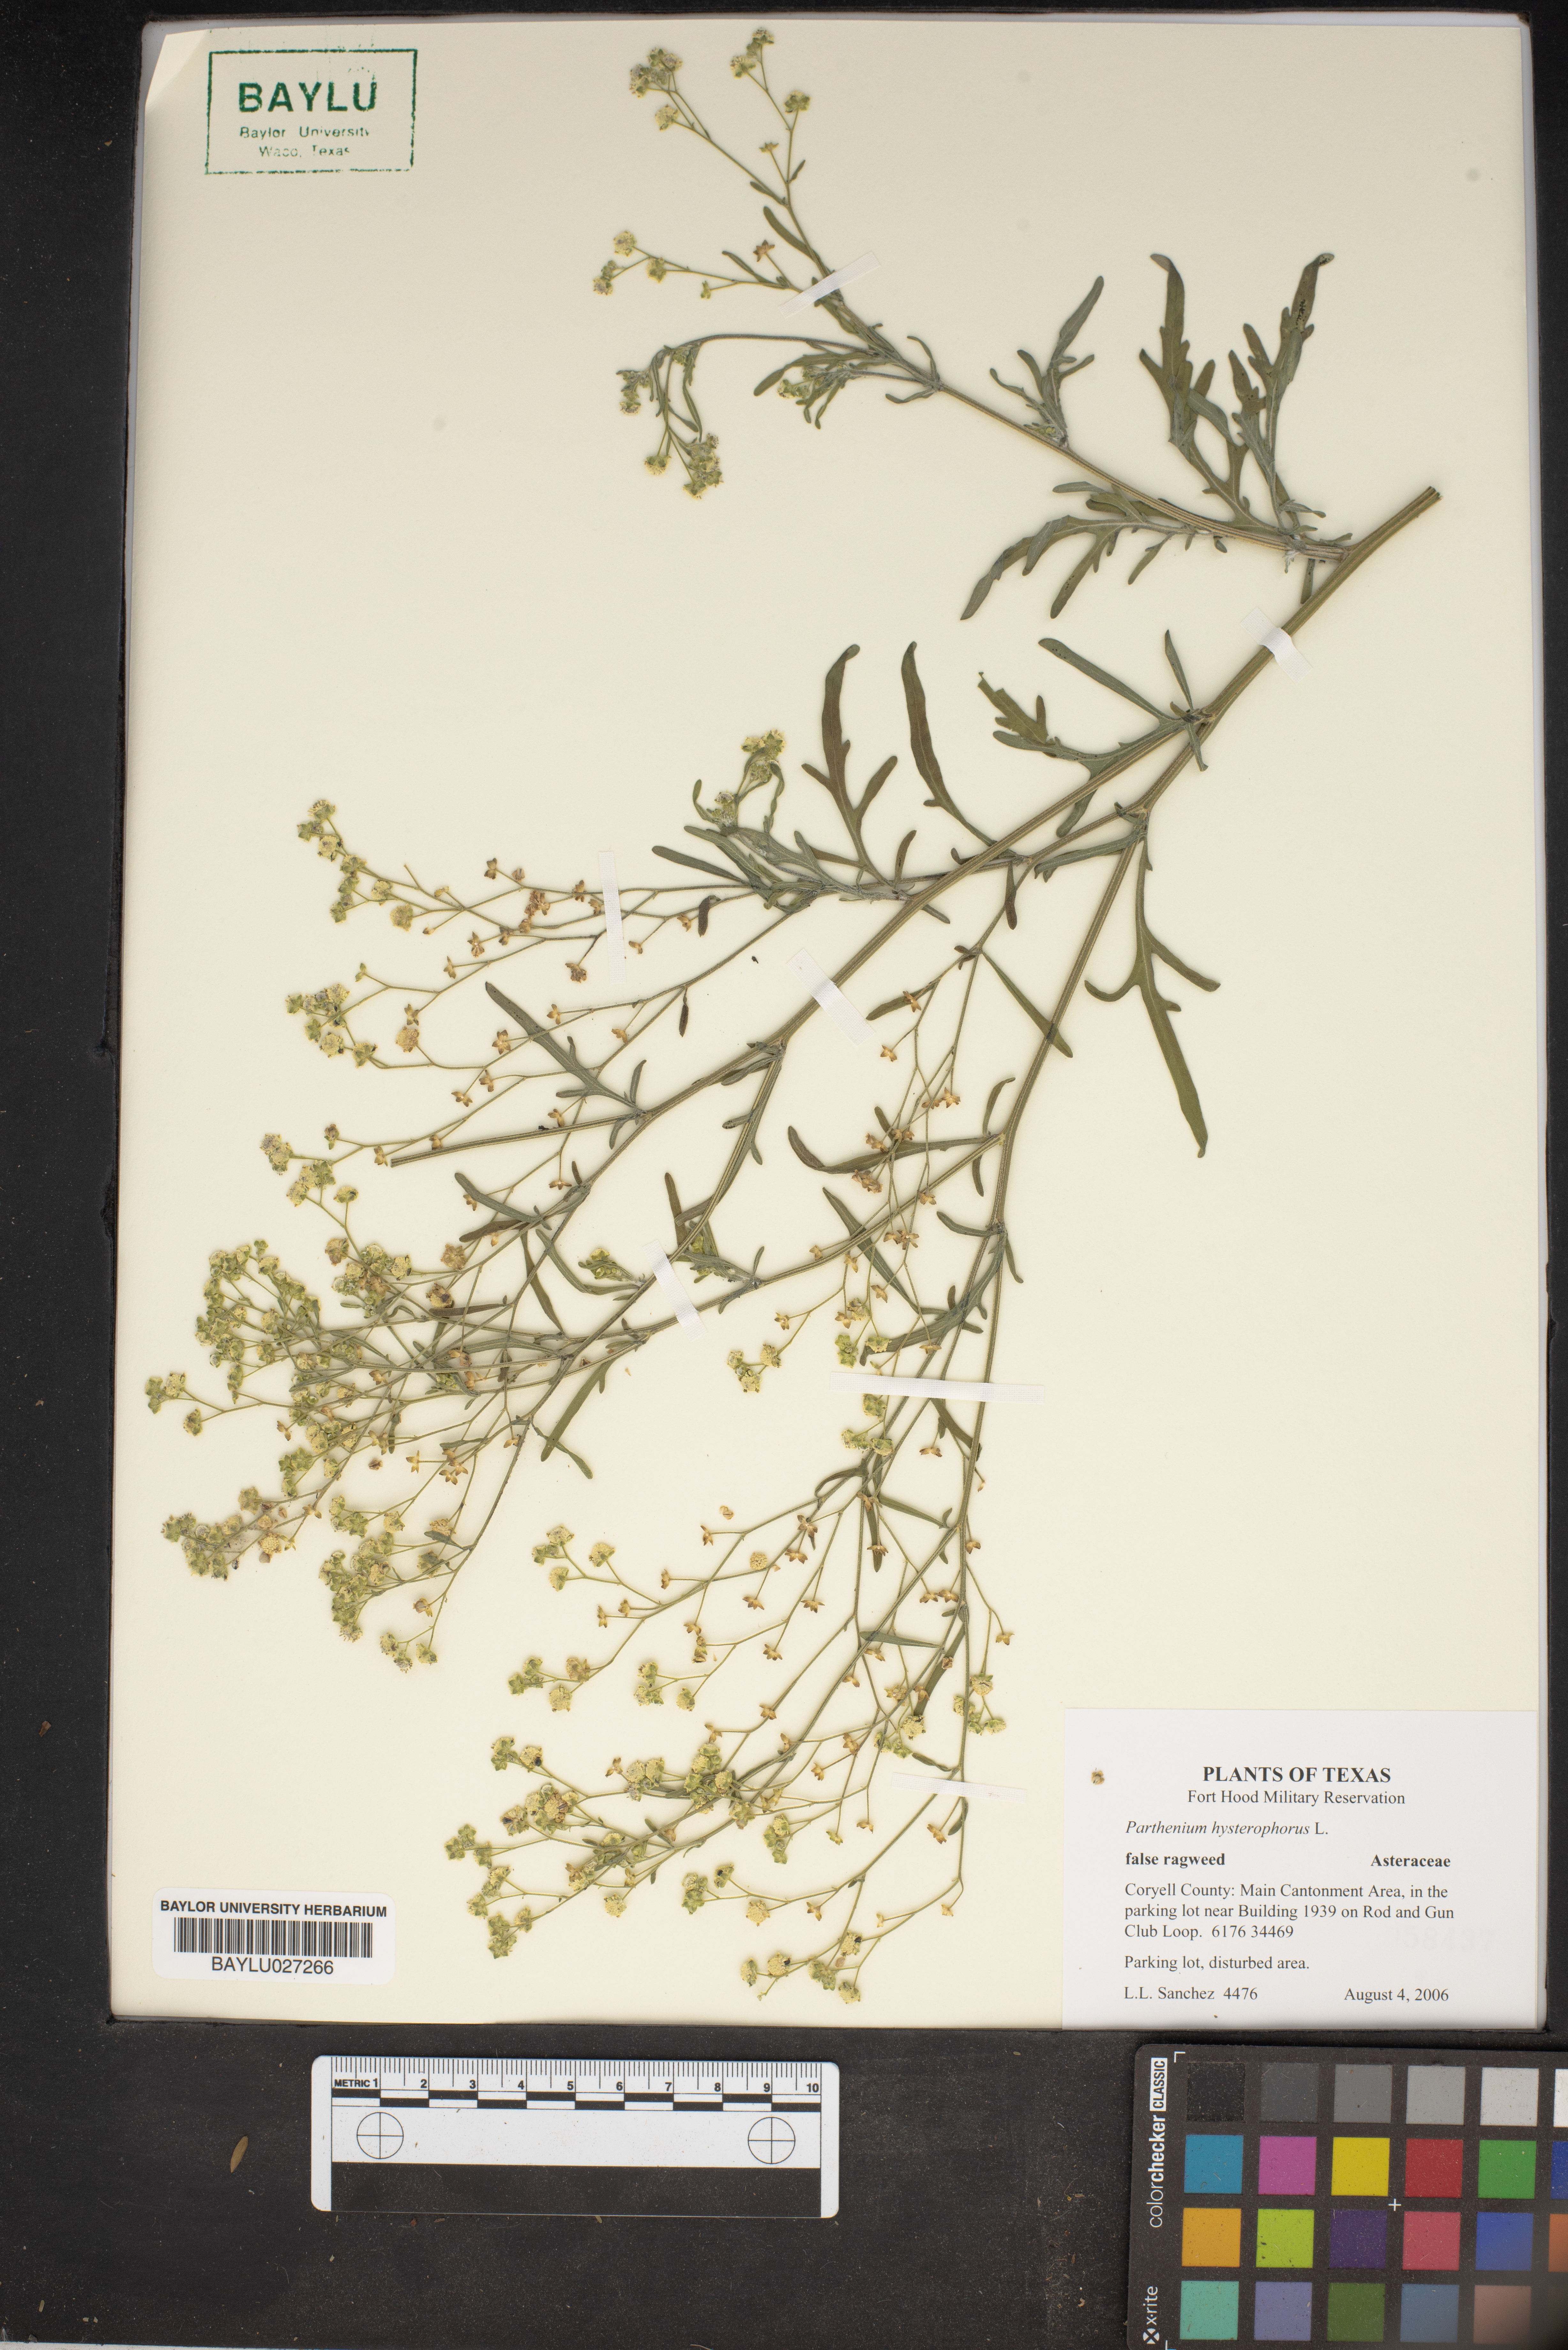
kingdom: Plantae
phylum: Tracheophyta
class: Magnoliopsida
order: Asterales
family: Asteraceae
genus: Parthenium
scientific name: Parthenium hysterophorus
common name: Santa maria feverfew
